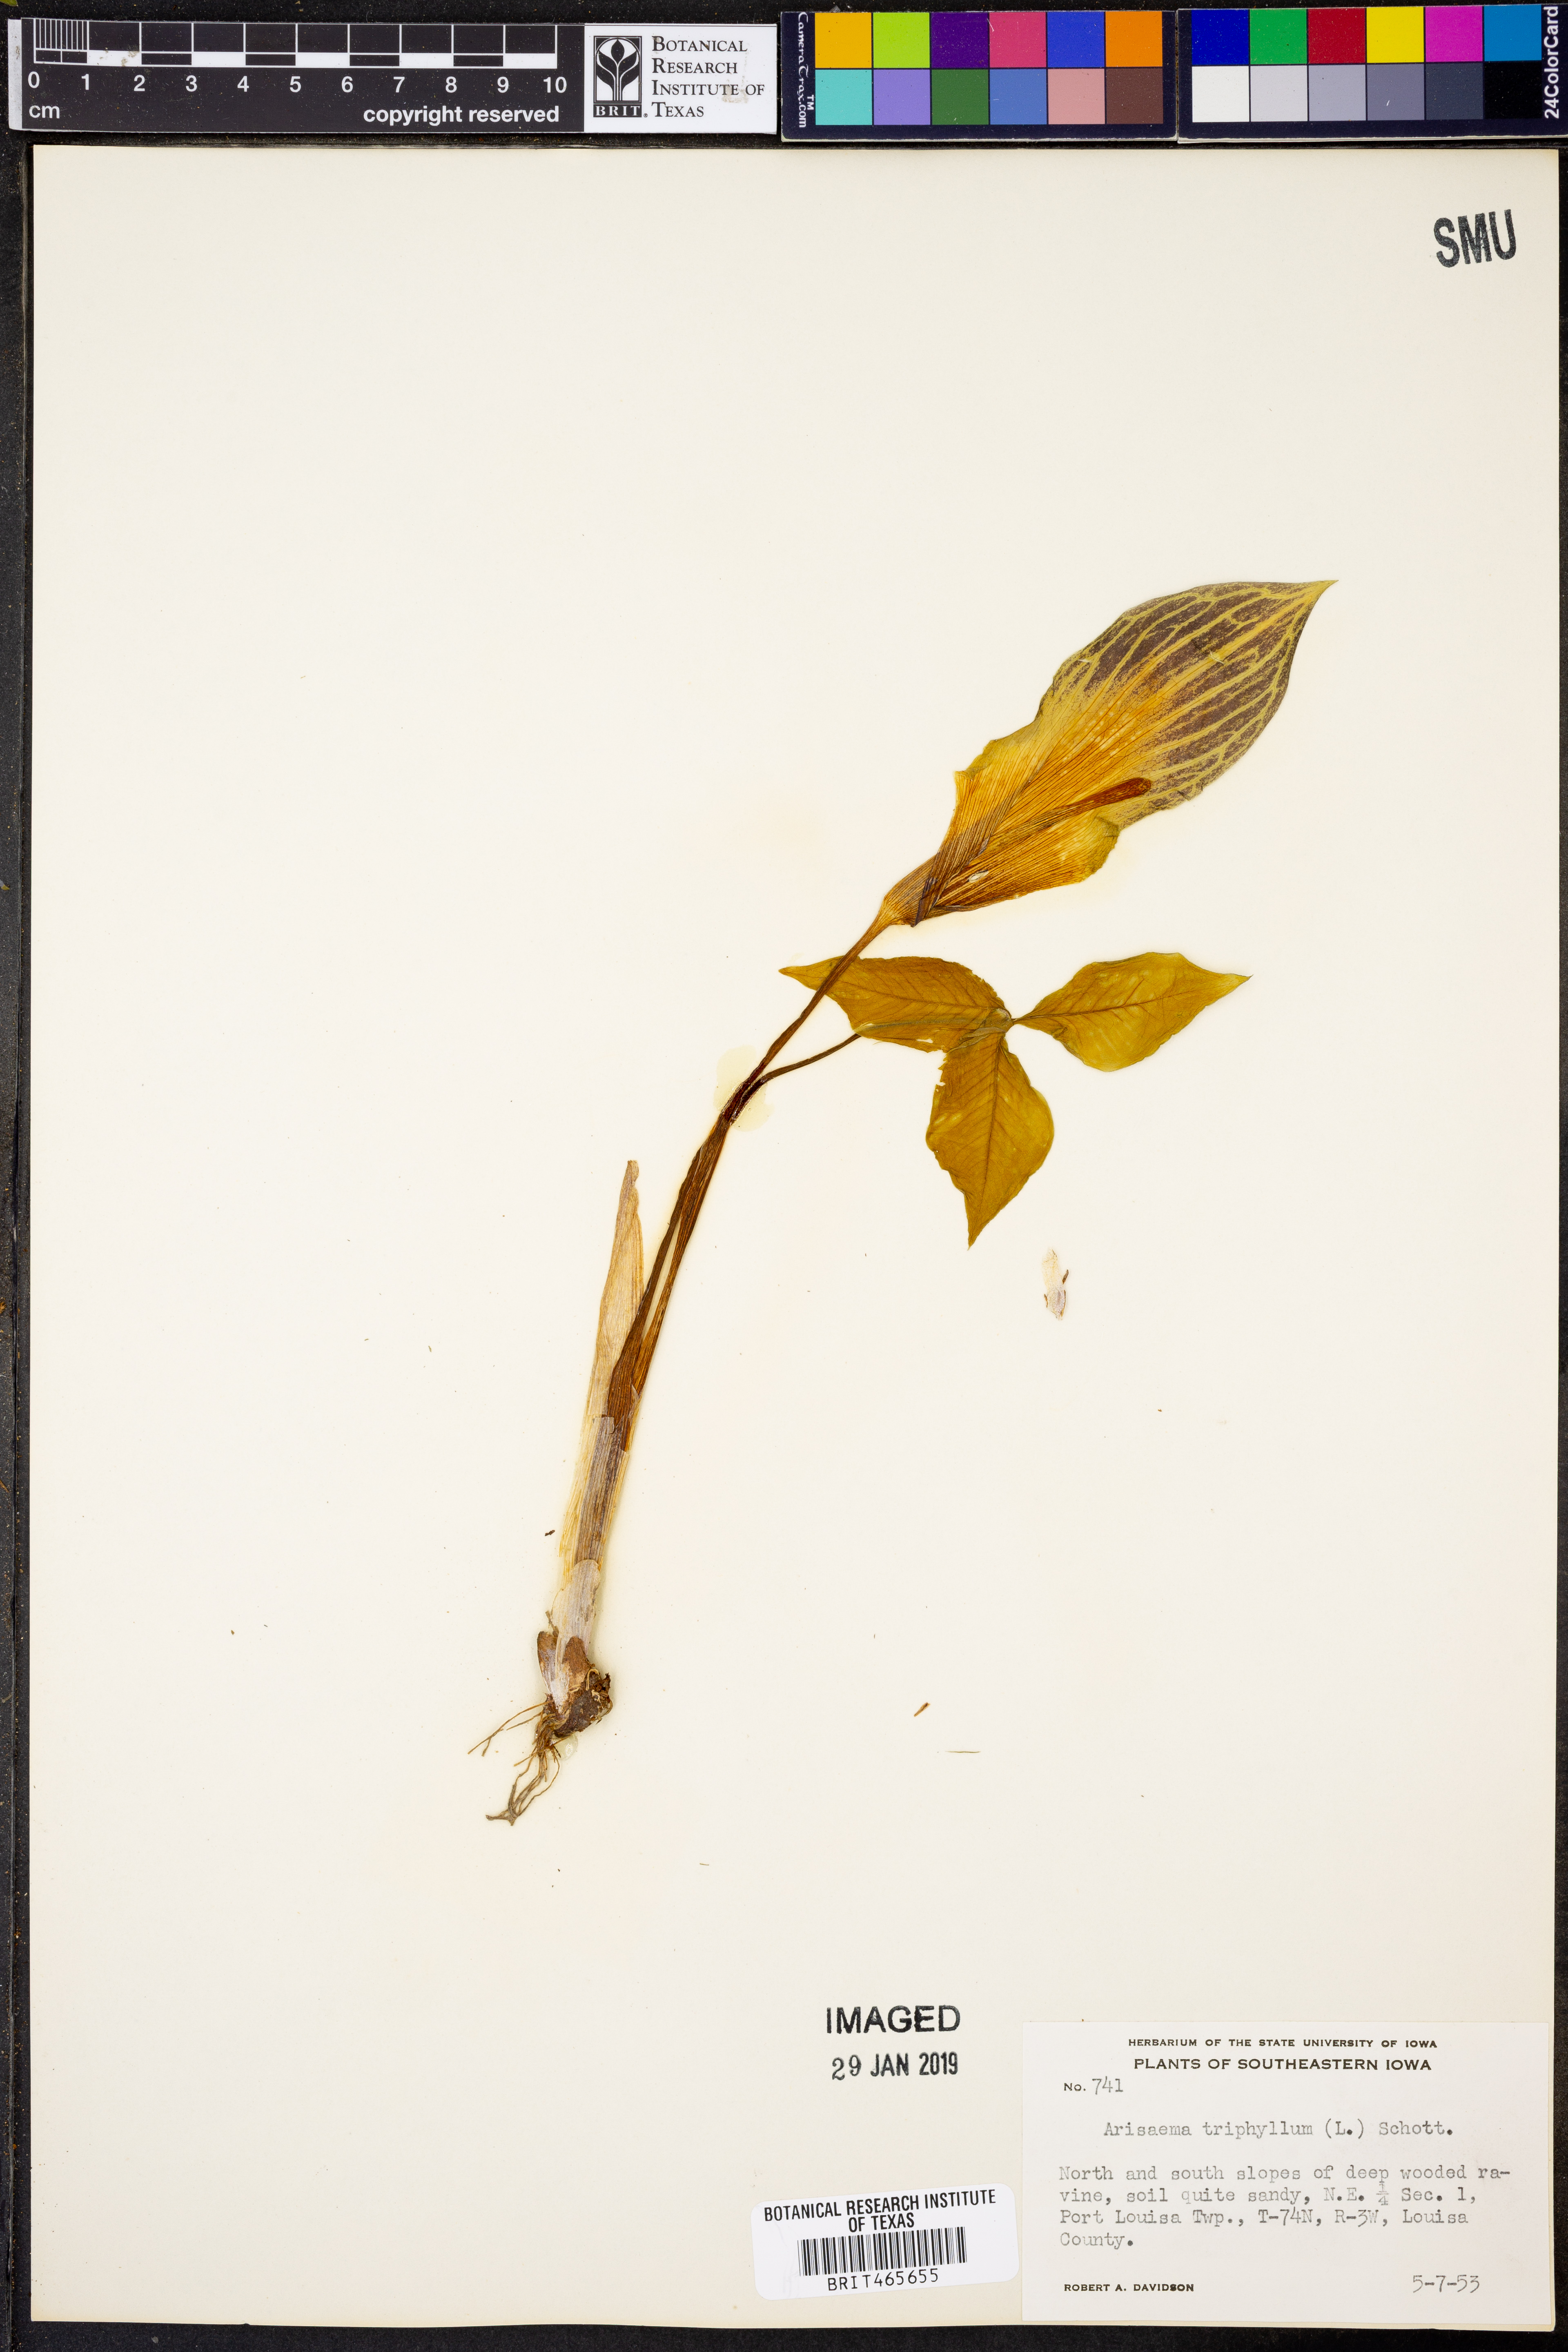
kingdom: Plantae
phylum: Tracheophyta
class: Liliopsida
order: Alismatales
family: Araceae
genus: Arisaema
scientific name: Arisaema triphyllum
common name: Jack-in-the-pulpit
